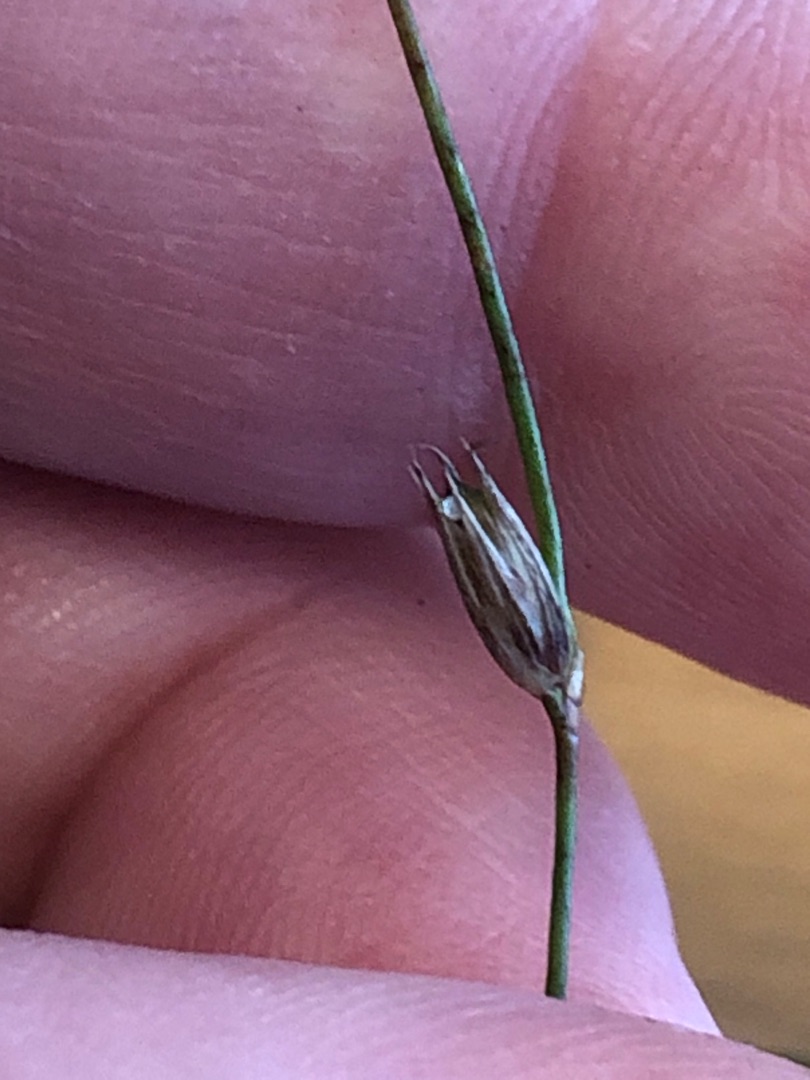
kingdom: Plantae
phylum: Tracheophyta
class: Liliopsida
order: Poales
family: Juncaceae
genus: Juncus
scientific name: Juncus bufonius
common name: Tudse-siv
